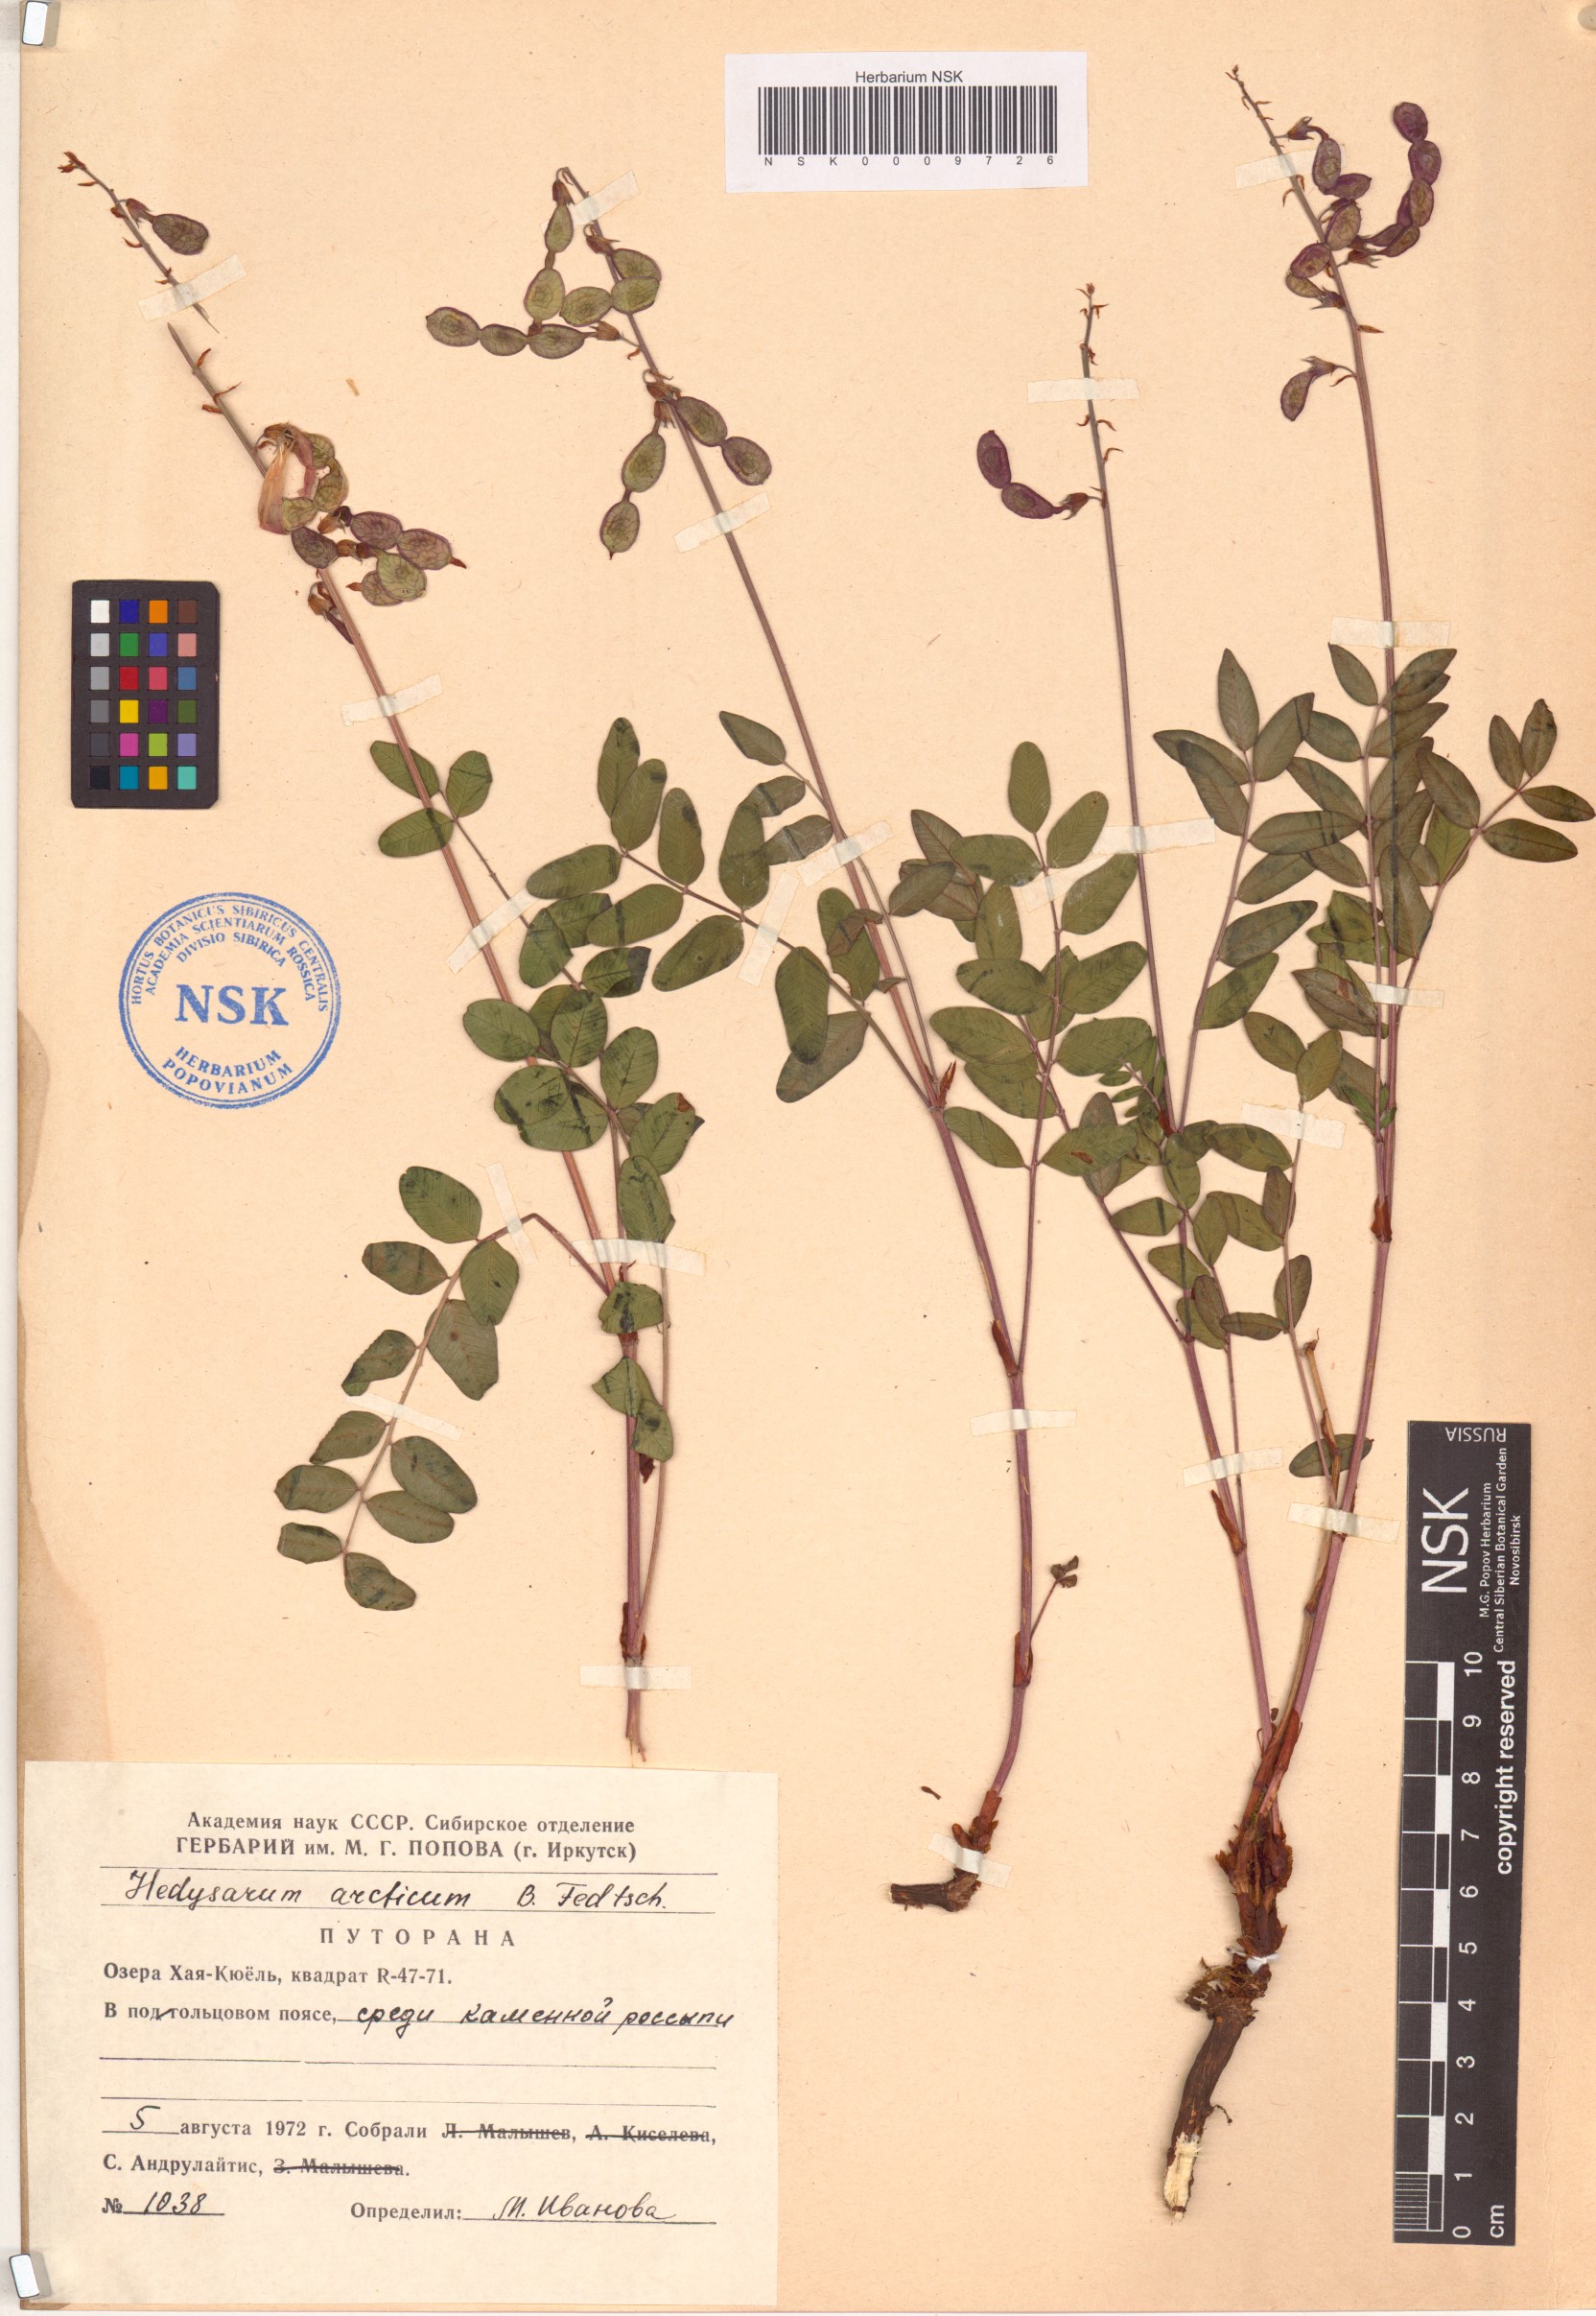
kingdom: Plantae
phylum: Tracheophyta
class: Magnoliopsida
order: Fabales
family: Fabaceae
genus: Hedysarum
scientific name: Hedysarum hedysaroides
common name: Alpine french-honeysuckle
